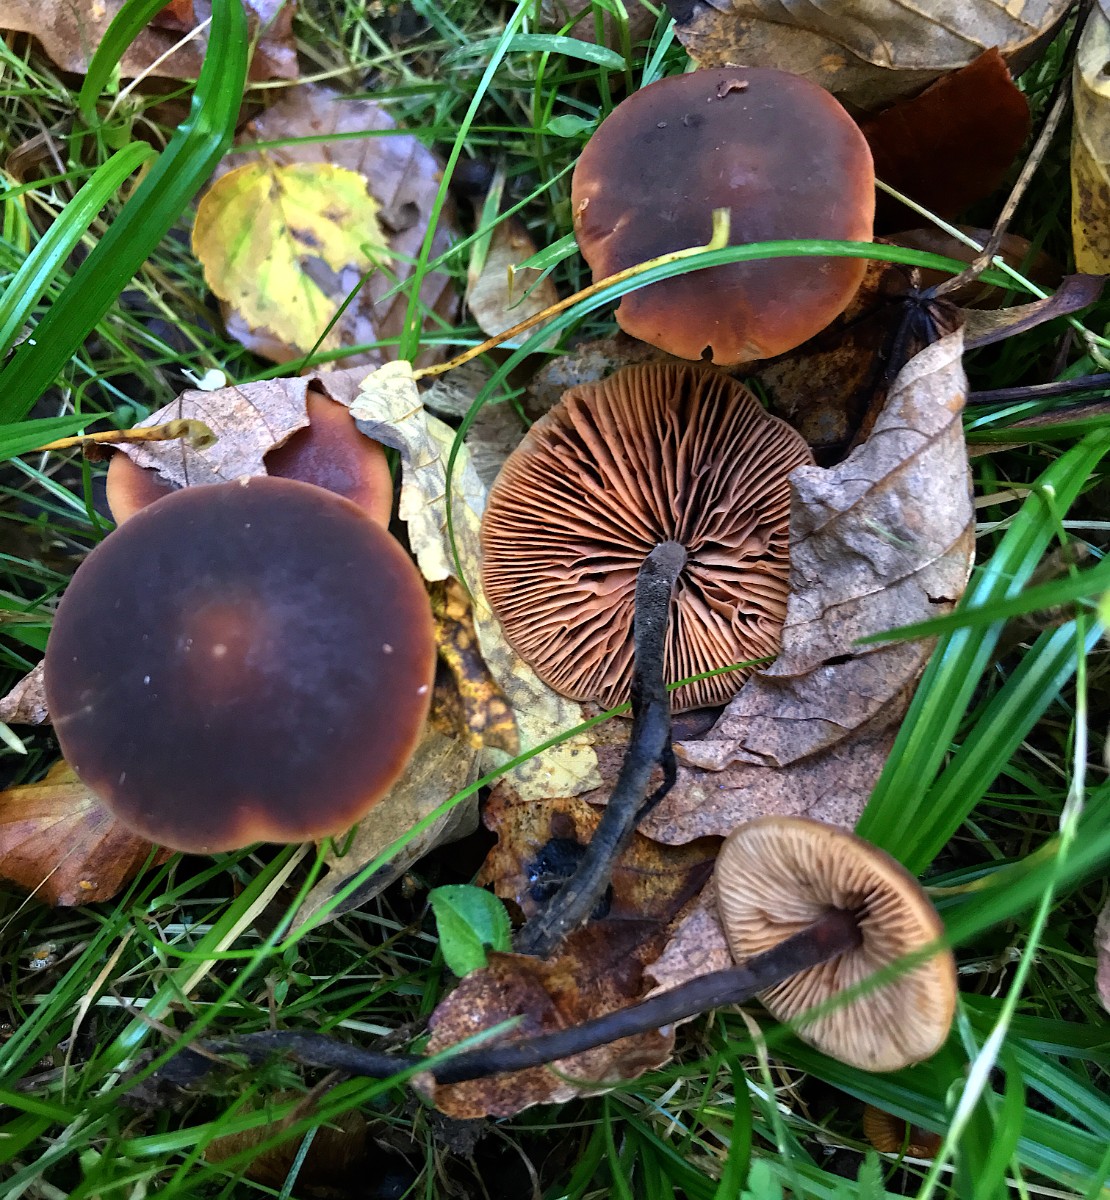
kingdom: Fungi
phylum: Basidiomycota
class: Agaricomycetes
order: Agaricales
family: Macrocystidiaceae
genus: Macrocystidia
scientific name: Macrocystidia cucumis
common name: agurkehat
